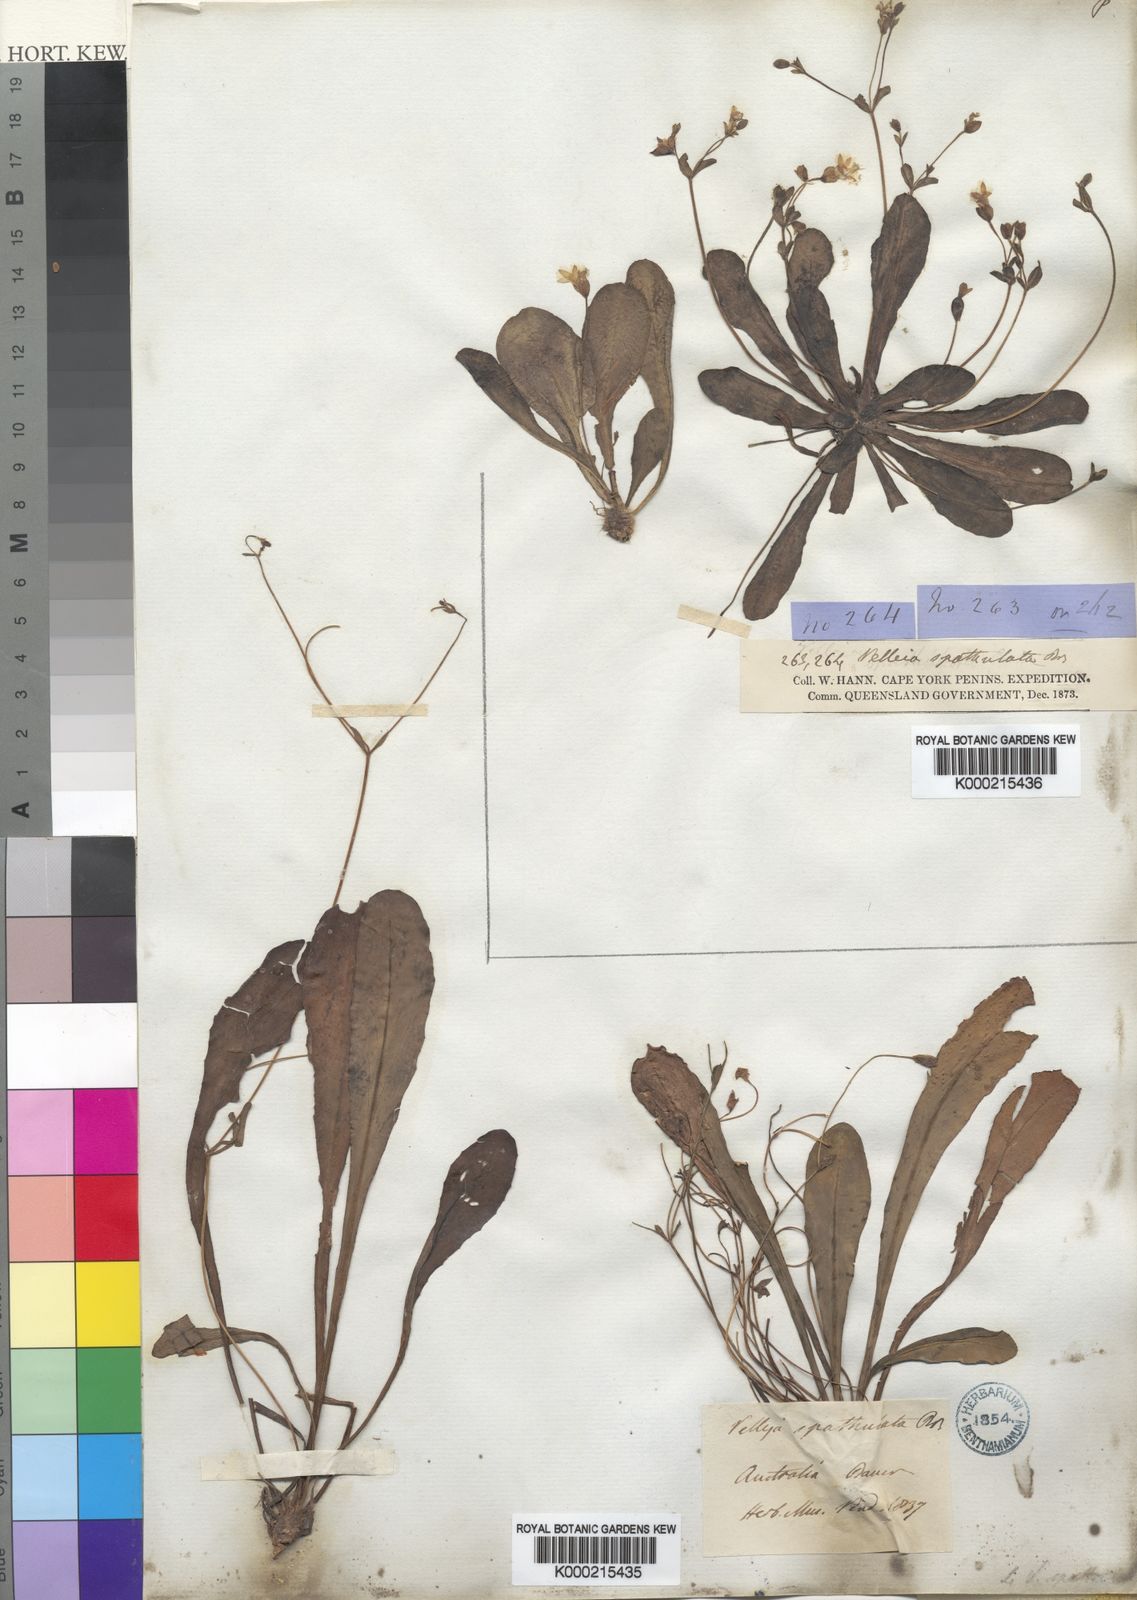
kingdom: Plantae
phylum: Tracheophyta
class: Magnoliopsida
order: Asterales
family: Goodeniaceae
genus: Goodenia
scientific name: Goodenia mystrophylla
